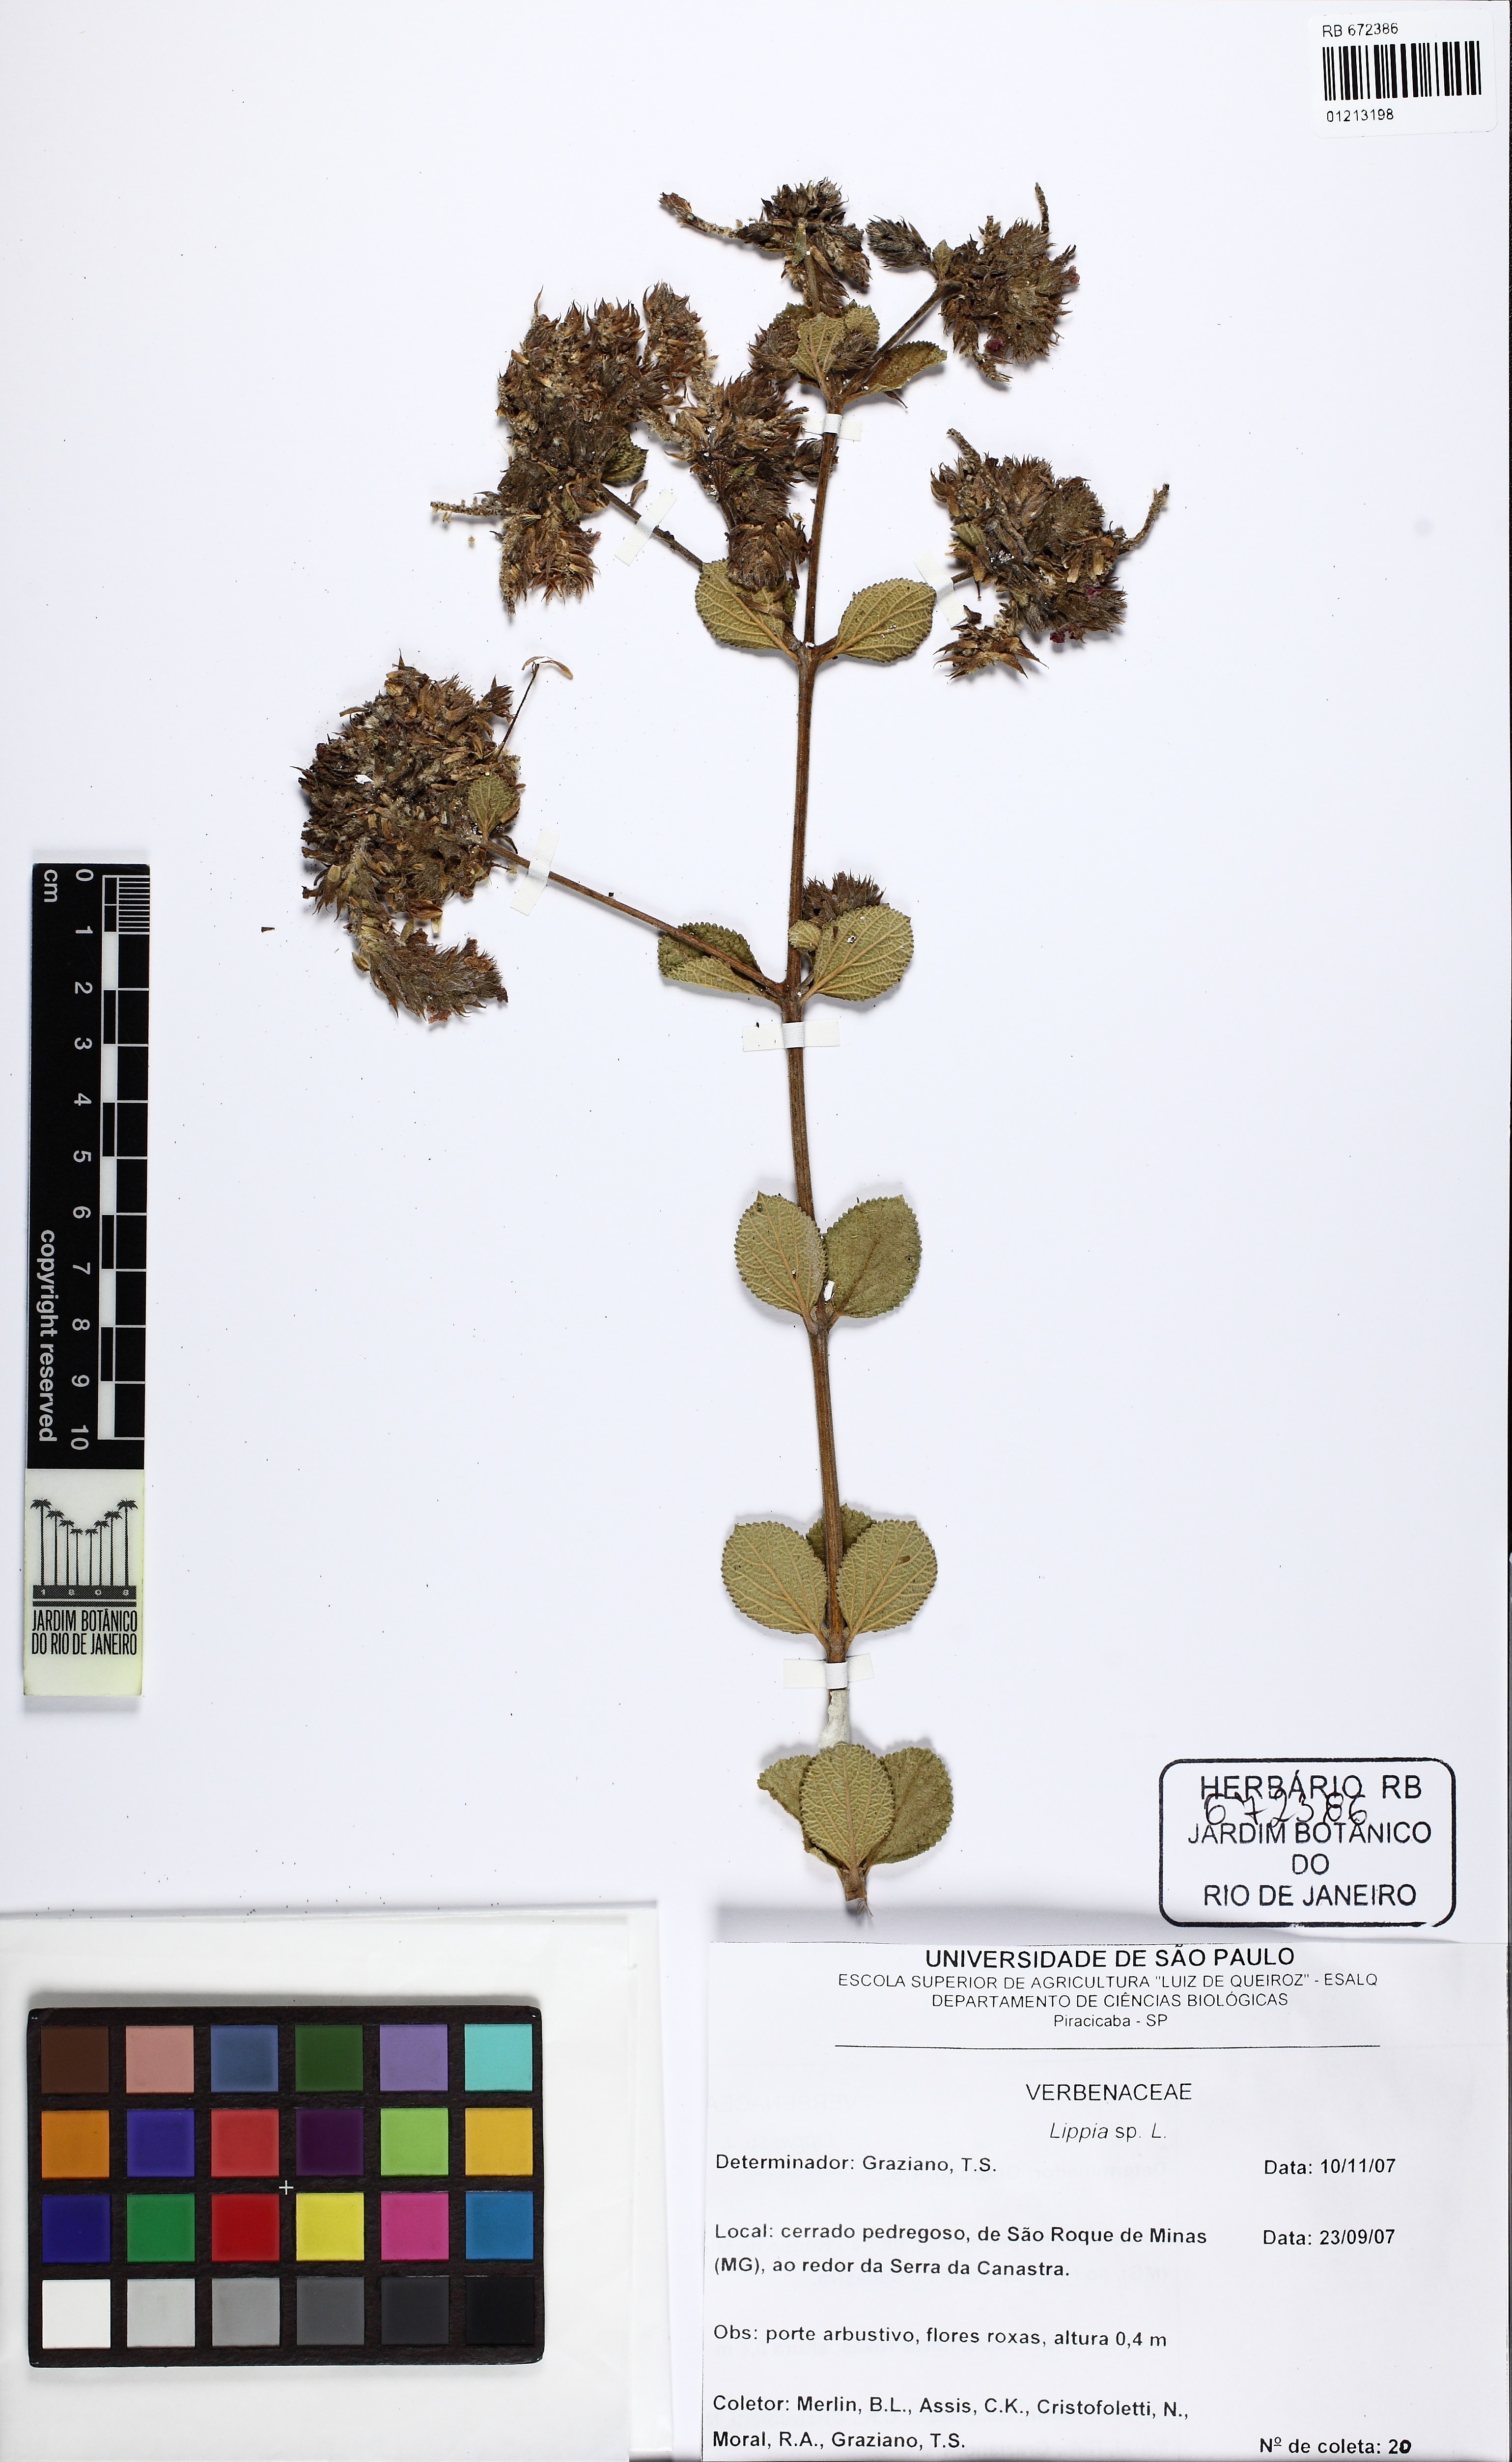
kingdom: Plantae
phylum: Tracheophyta
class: Magnoliopsida
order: Lamiales
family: Verbenaceae
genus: Lippia
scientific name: Lippia
